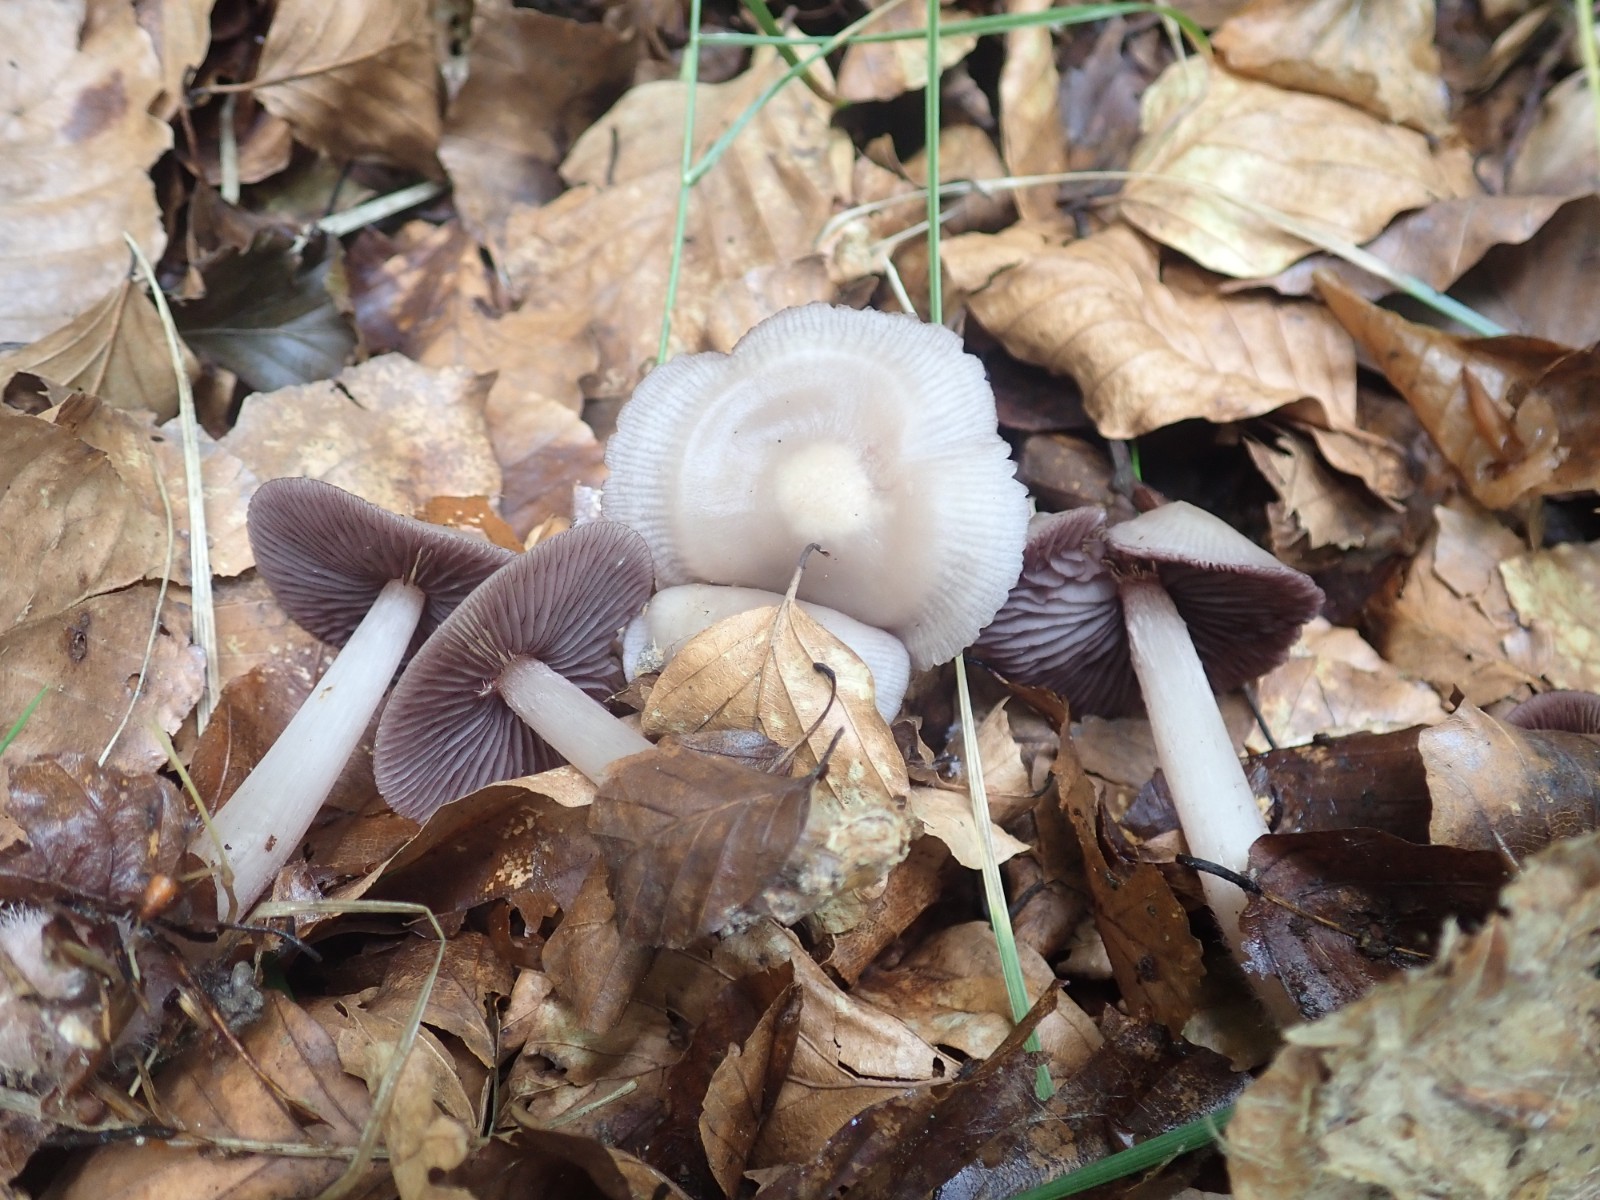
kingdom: Fungi
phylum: Basidiomycota
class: Agaricomycetes
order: Agaricales
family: Mycenaceae
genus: Mycena
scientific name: Mycena pelianthina
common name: mørkbladet huesvamp
